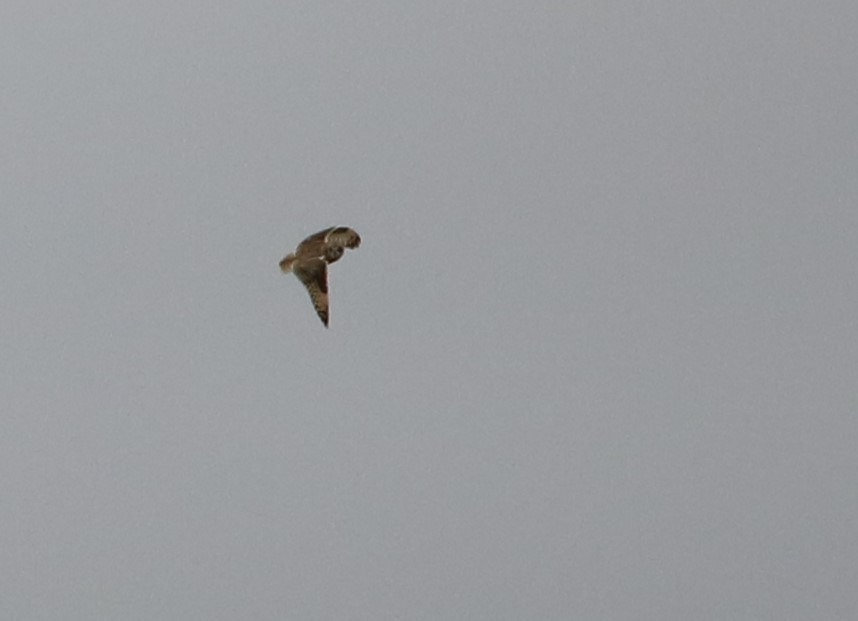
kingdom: Animalia
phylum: Chordata
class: Aves
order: Strigiformes
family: Strigidae
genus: Asio
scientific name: Asio flammeus
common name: Mosehornugle
